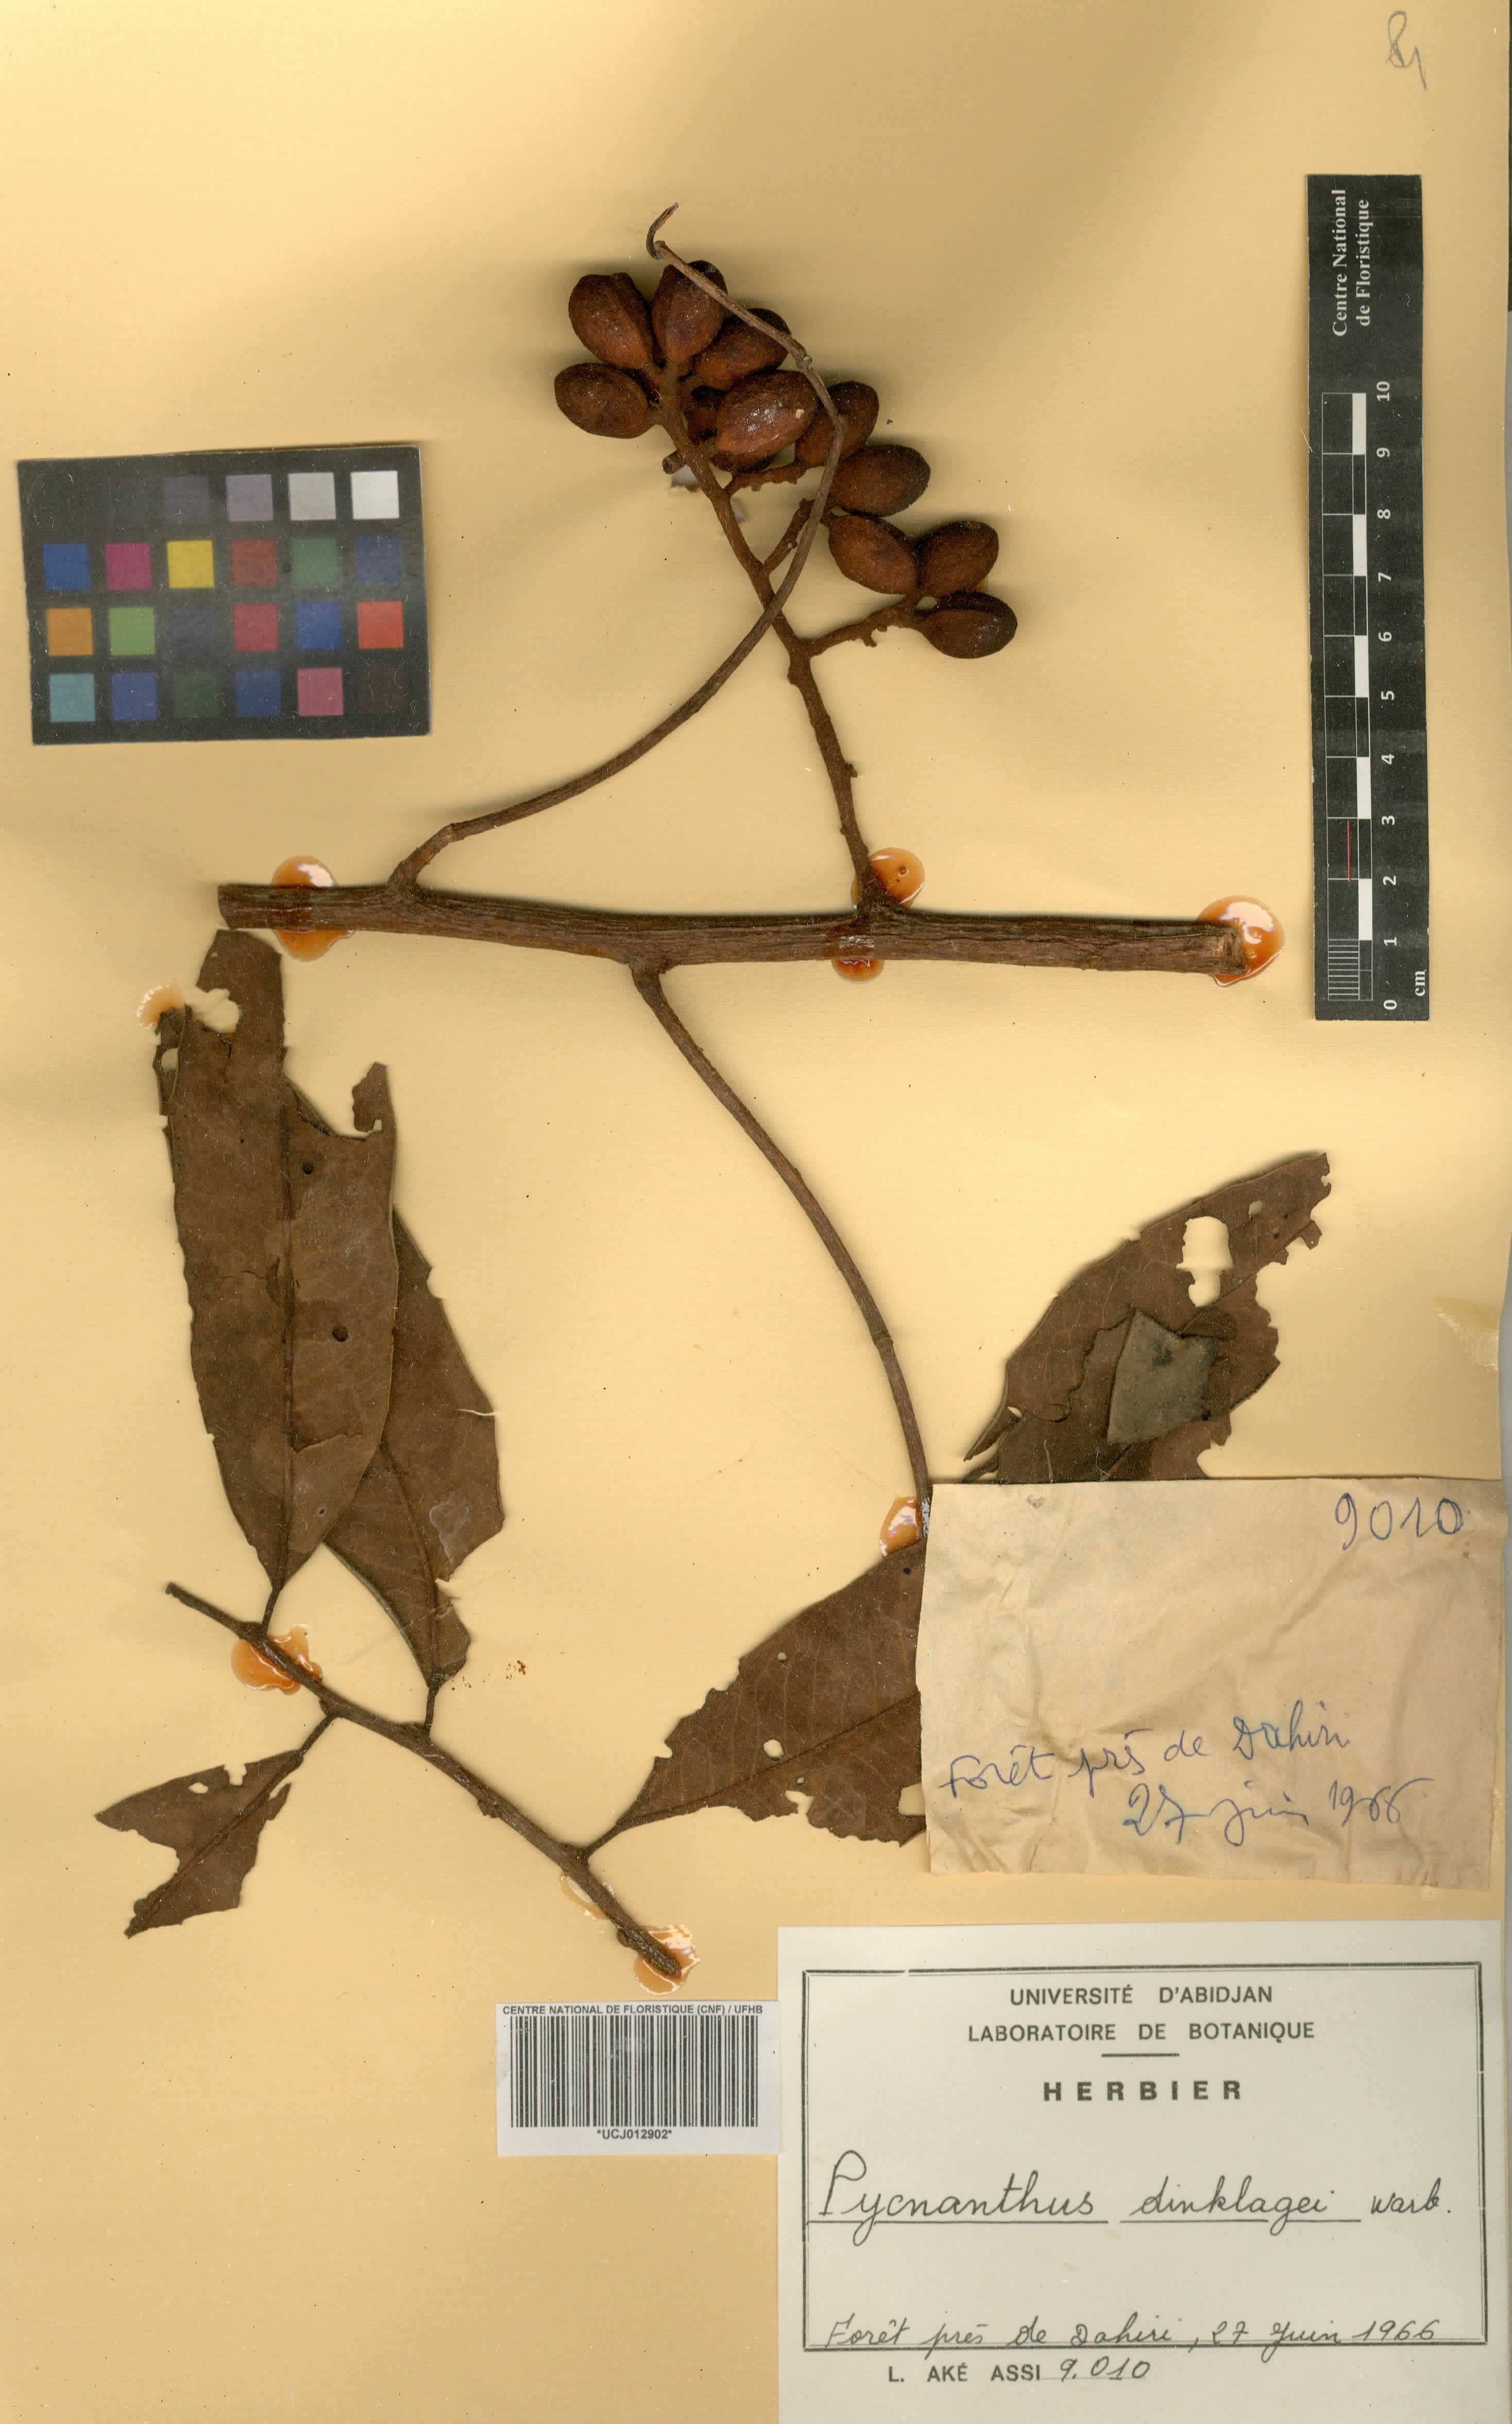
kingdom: Plantae
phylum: Tracheophyta
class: Magnoliopsida
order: Magnoliales
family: Myristicaceae
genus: Pycnanthus
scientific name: Pycnanthus dinklagei
